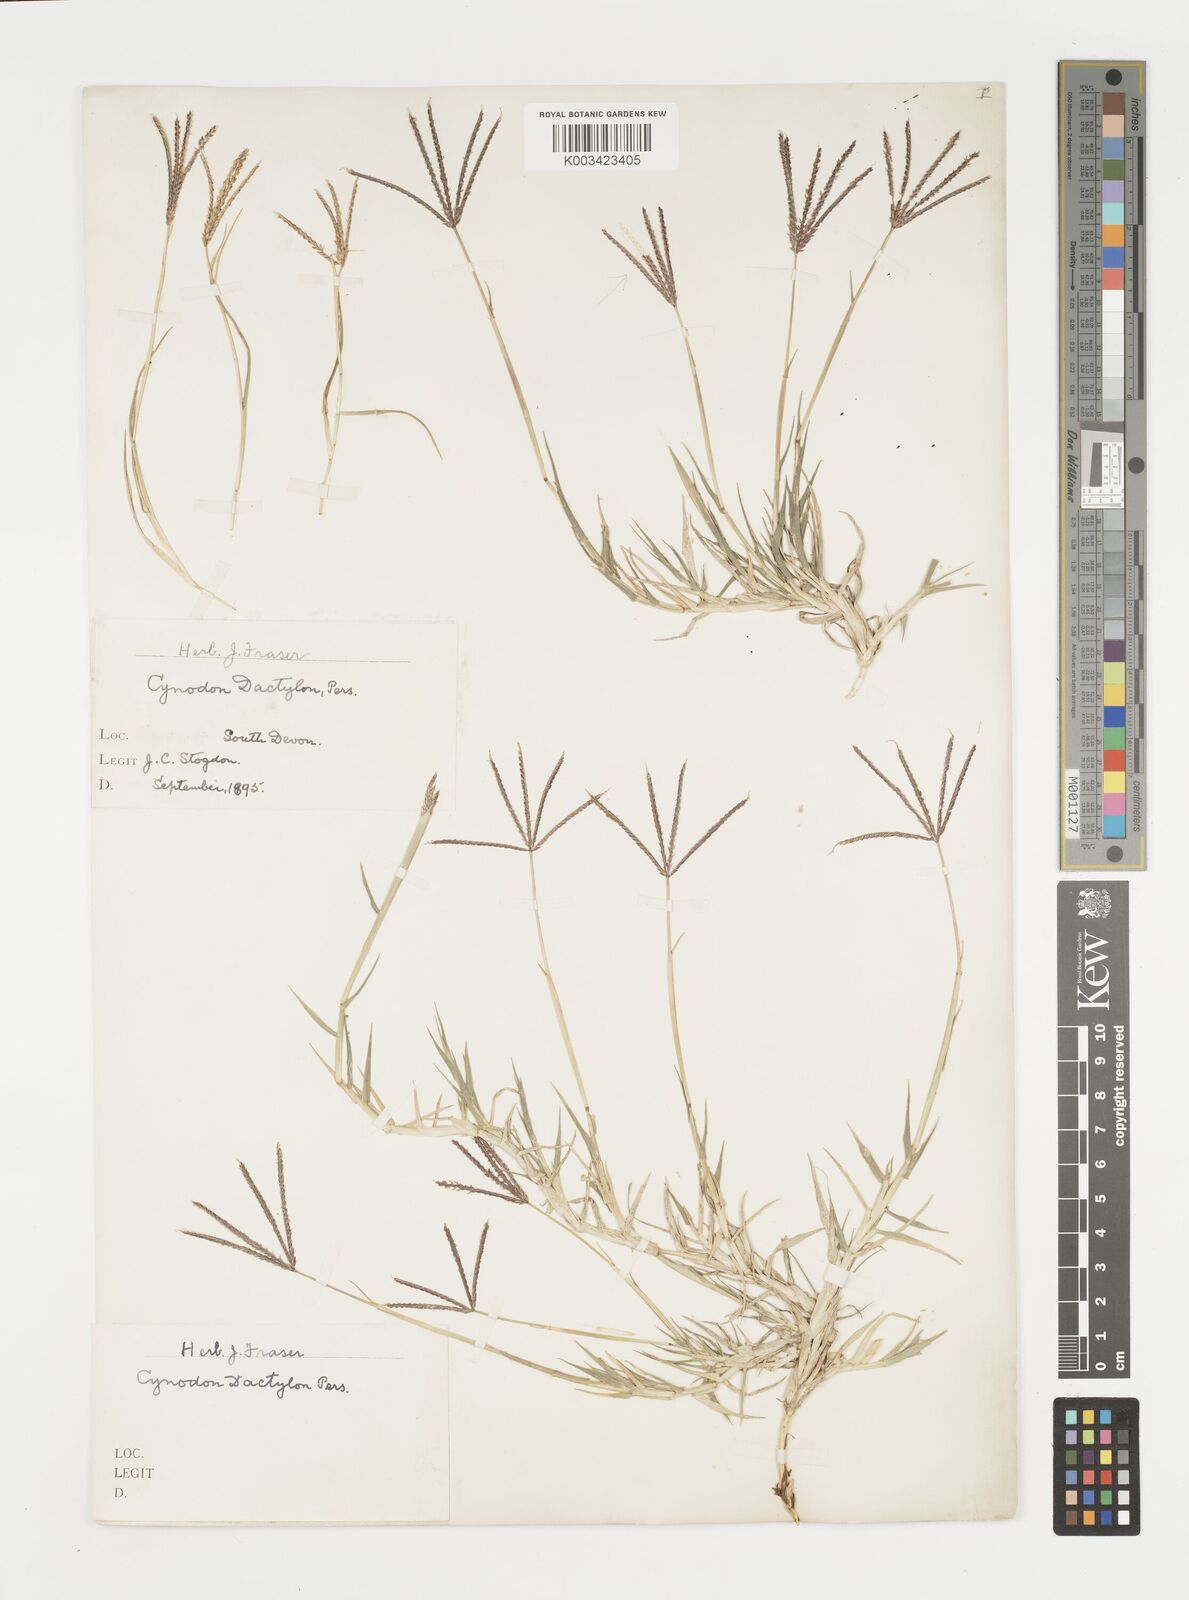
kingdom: Plantae
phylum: Tracheophyta
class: Liliopsida
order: Poales
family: Poaceae
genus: Cynodon
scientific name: Cynodon dactylon
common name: Bermuda grass
